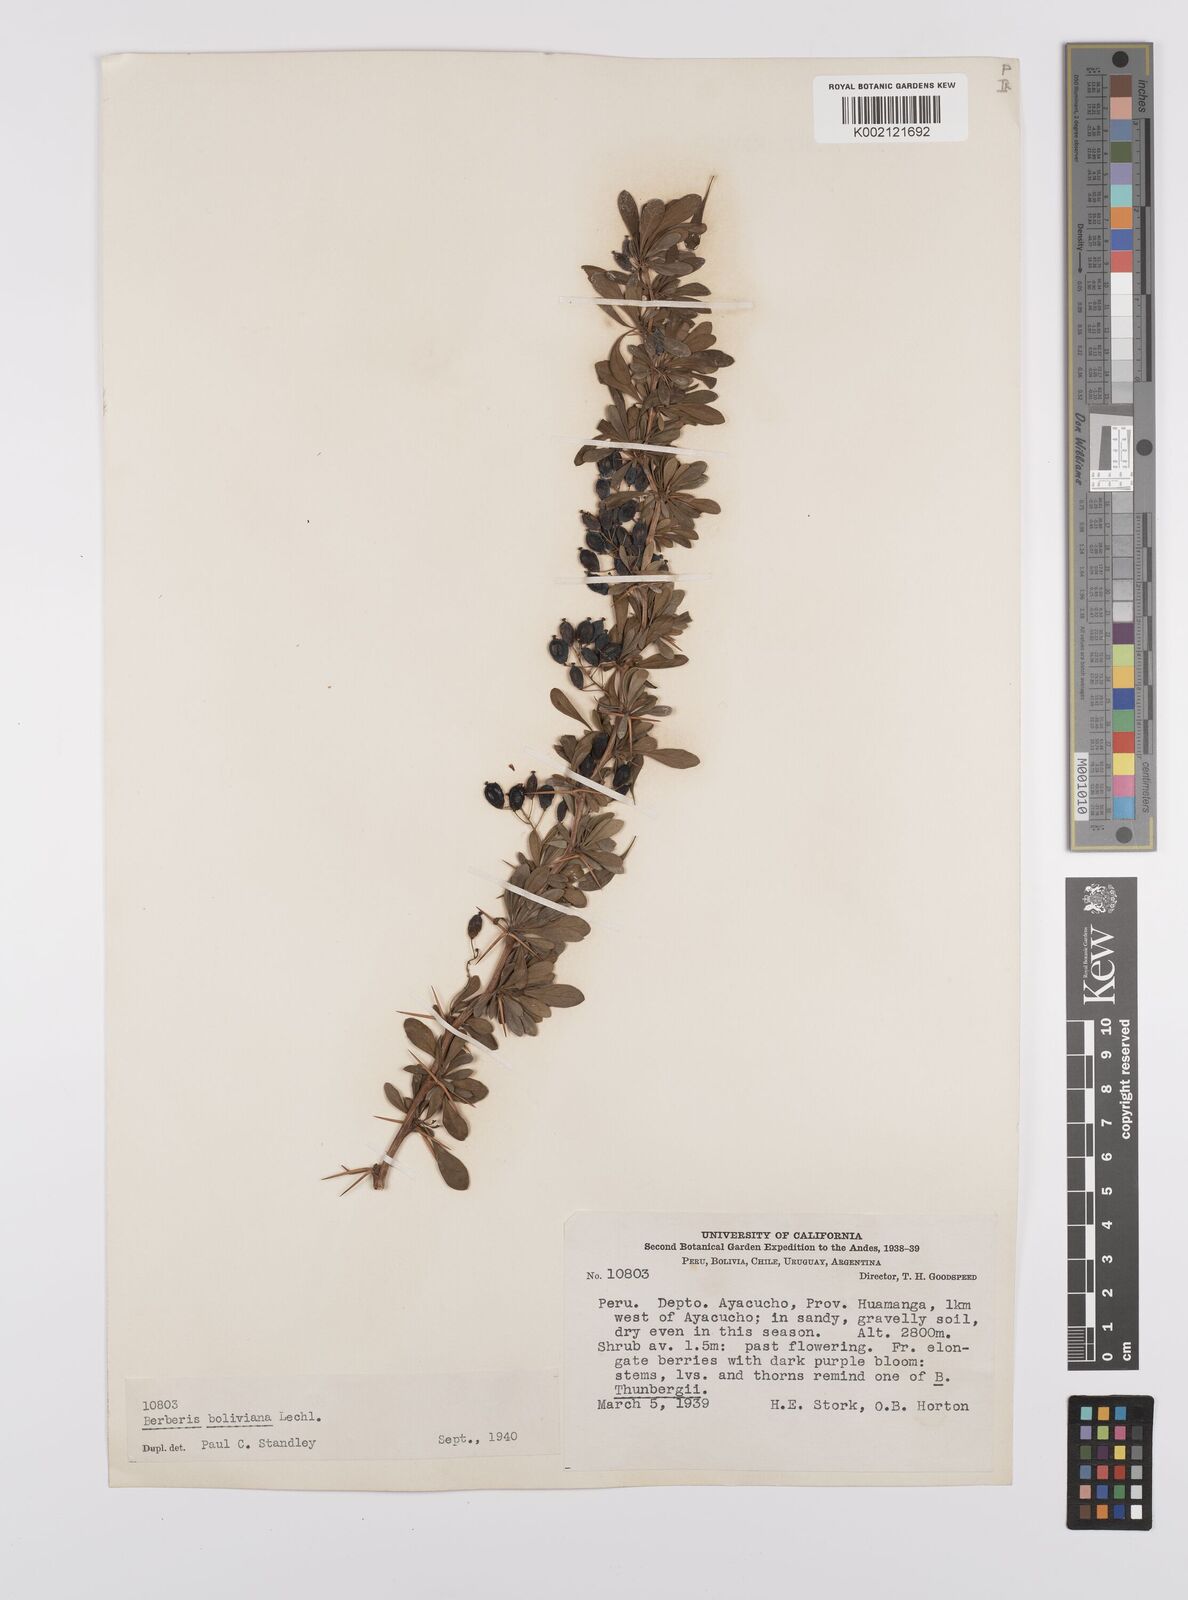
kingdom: Plantae
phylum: Tracheophyta
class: Magnoliopsida
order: Ranunculales
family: Berberidaceae
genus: Berberis
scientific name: Berberis boliviana
